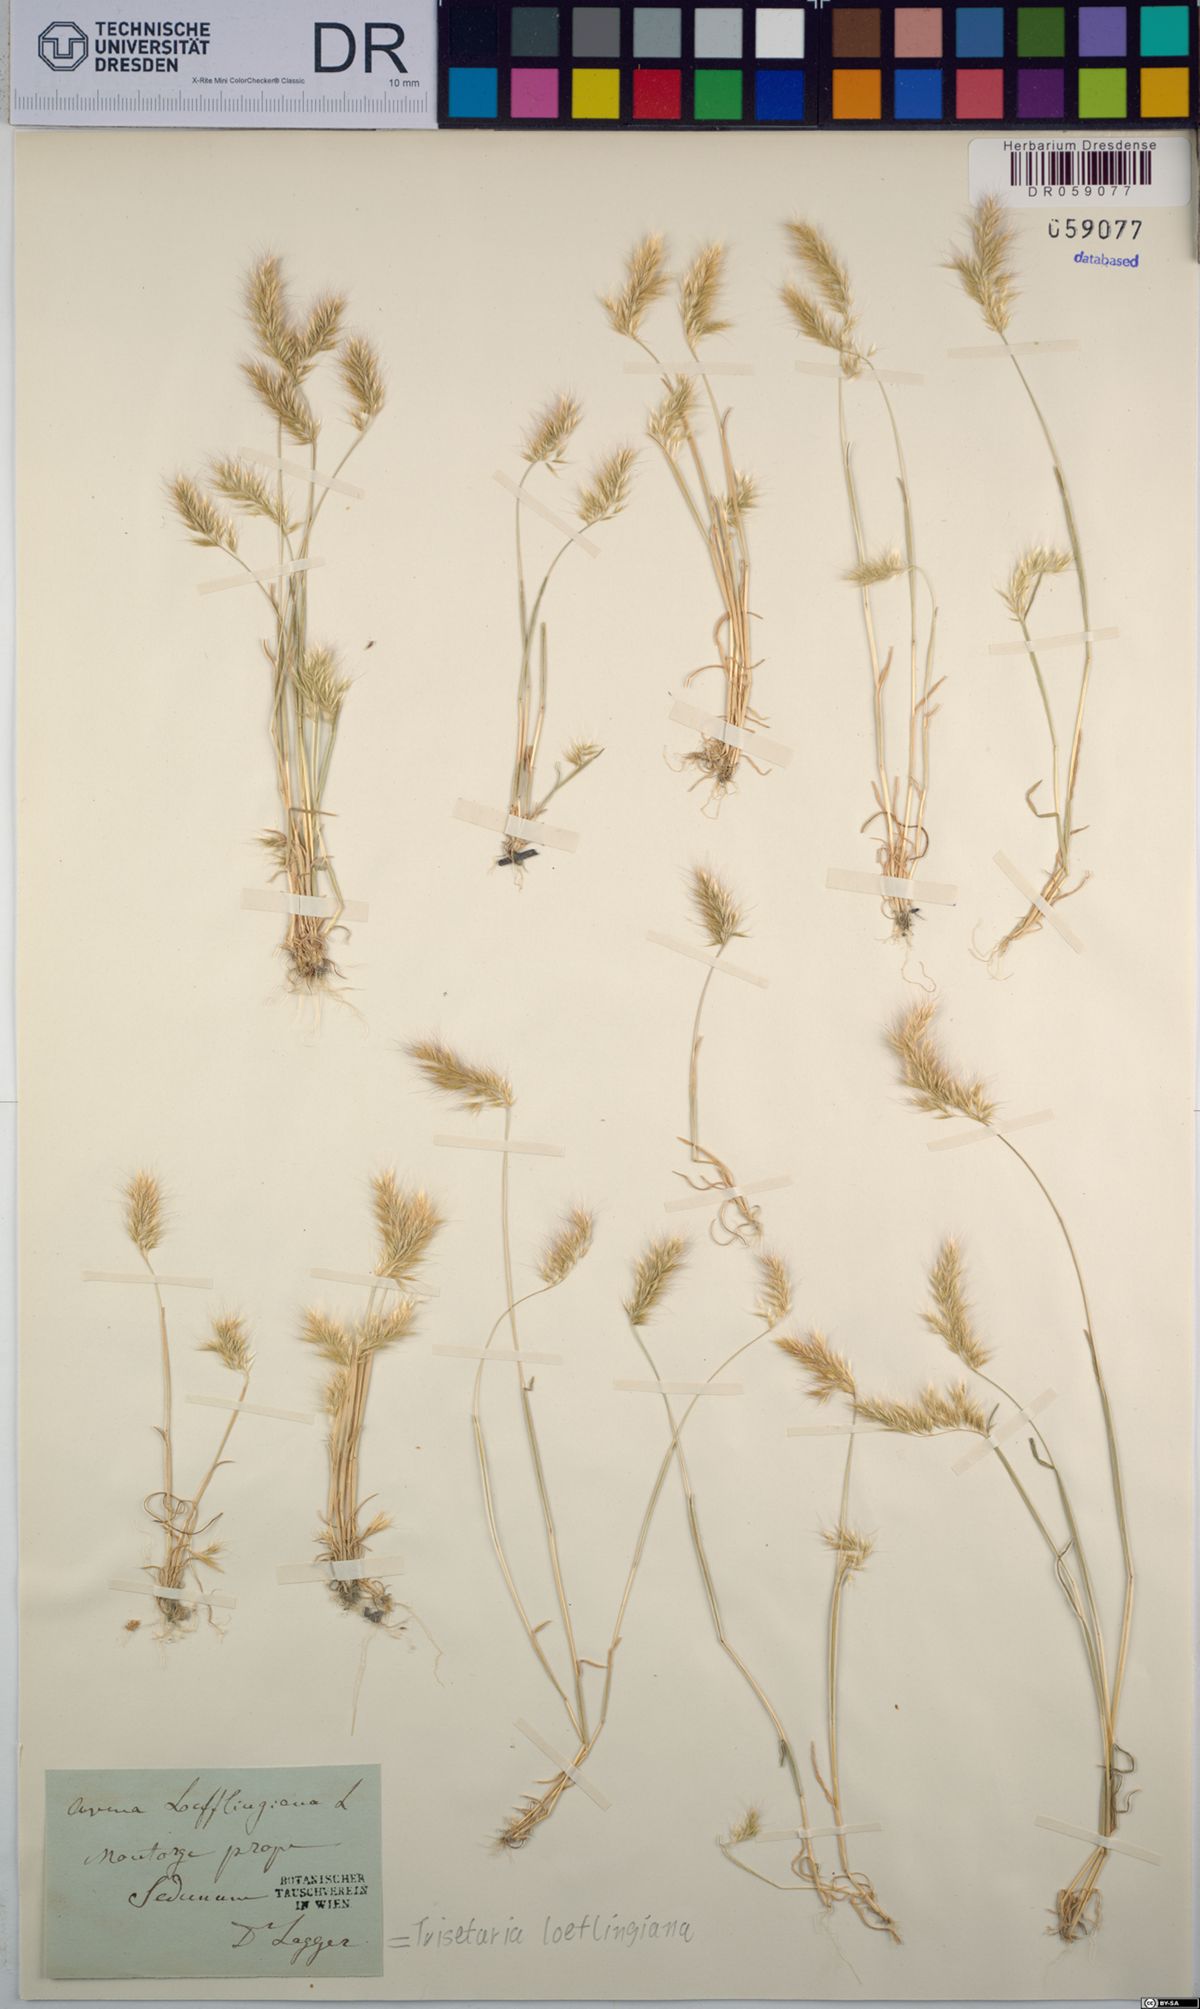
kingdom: Plantae
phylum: Tracheophyta
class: Liliopsida
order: Poales
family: Poaceae
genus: Trisetaria
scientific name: Trisetaria loeflingiana
